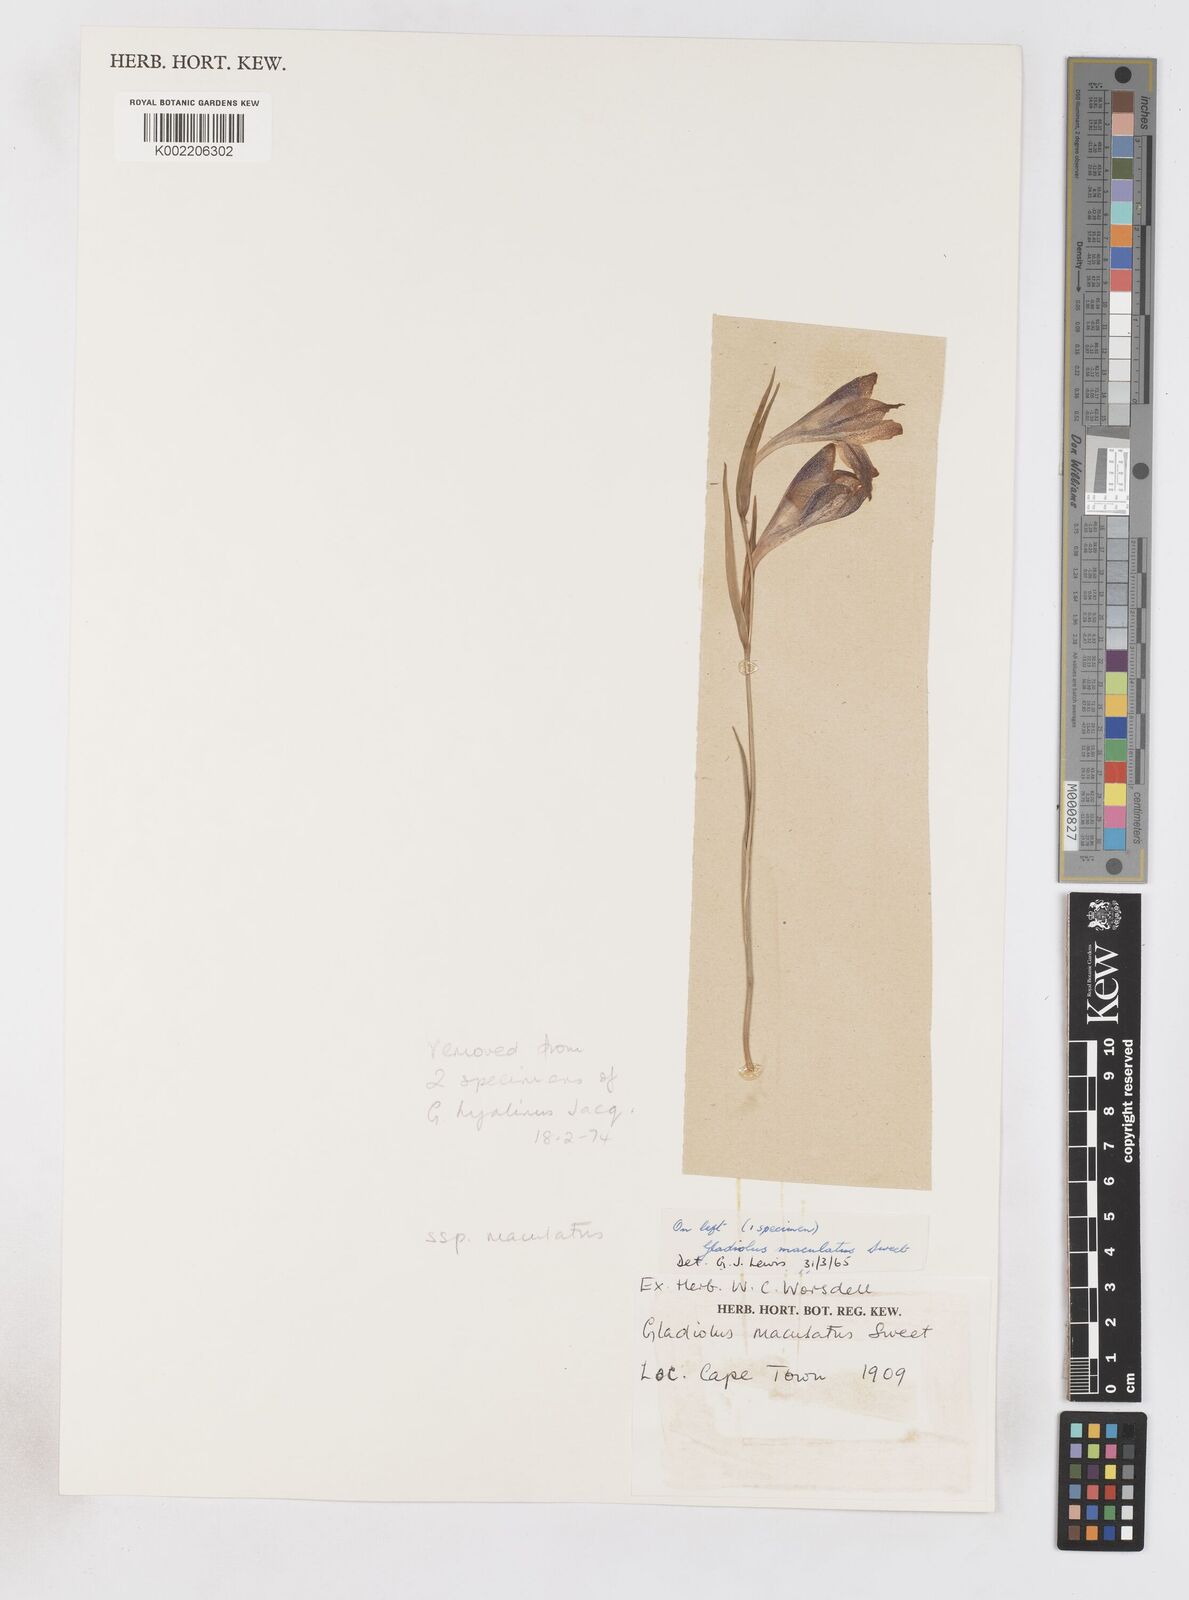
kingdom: Plantae
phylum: Tracheophyta
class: Liliopsida
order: Asparagales
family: Iridaceae
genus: Gladiolus
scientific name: Gladiolus maculatus
